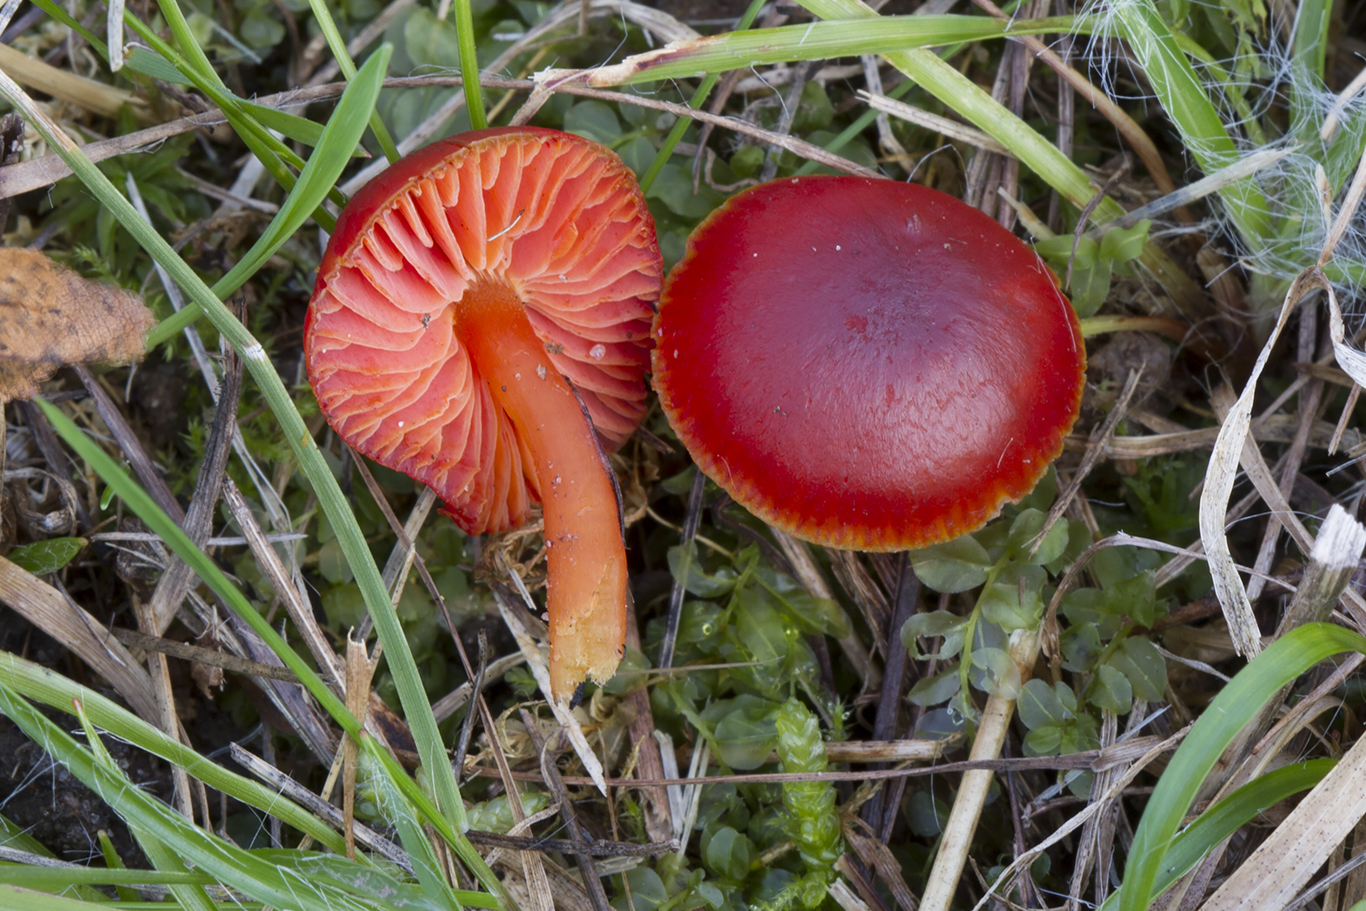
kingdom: Fungi
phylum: Basidiomycota
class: Agaricomycetes
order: Agaricales
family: Hygrophoraceae
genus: Hygrocybe
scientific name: Hygrocybe phaeococcinea
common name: sortdugget vokshat
